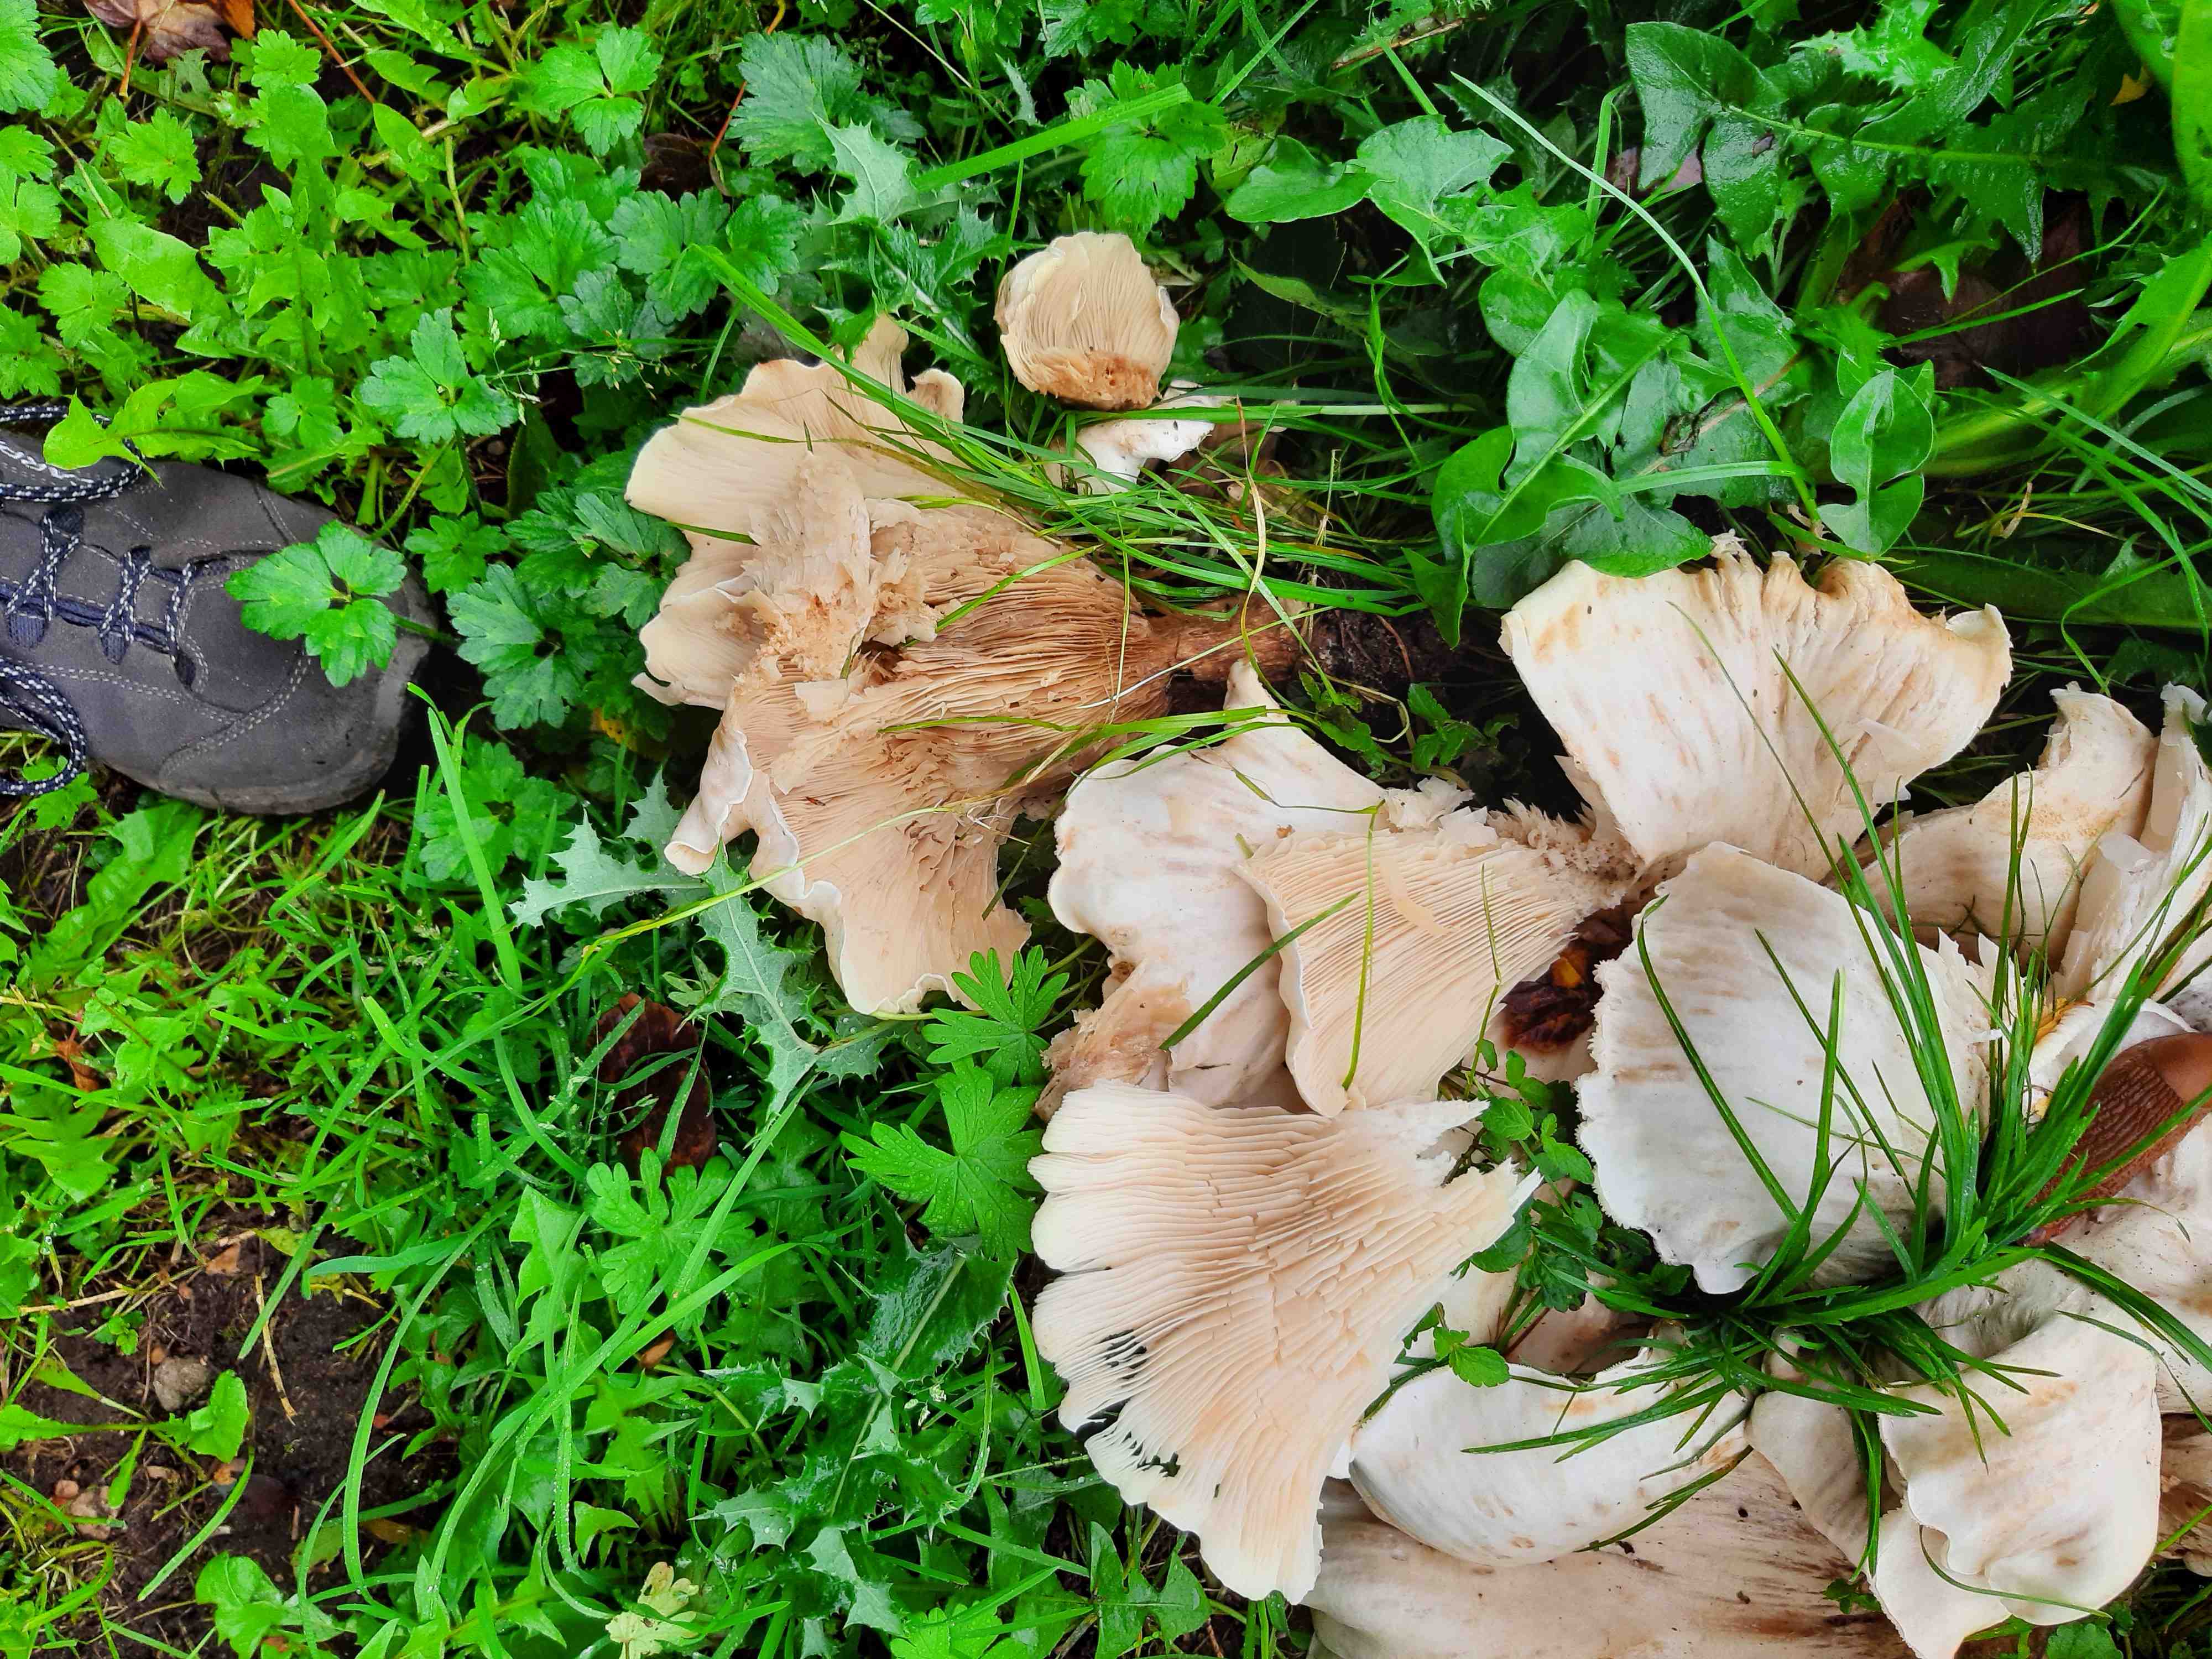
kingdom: Fungi
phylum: Basidiomycota
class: Agaricomycetes
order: Agaricales
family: Tricholomataceae
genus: Aspropaxillus
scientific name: Aspropaxillus giganteus
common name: kæmpe-tragtridderhat
